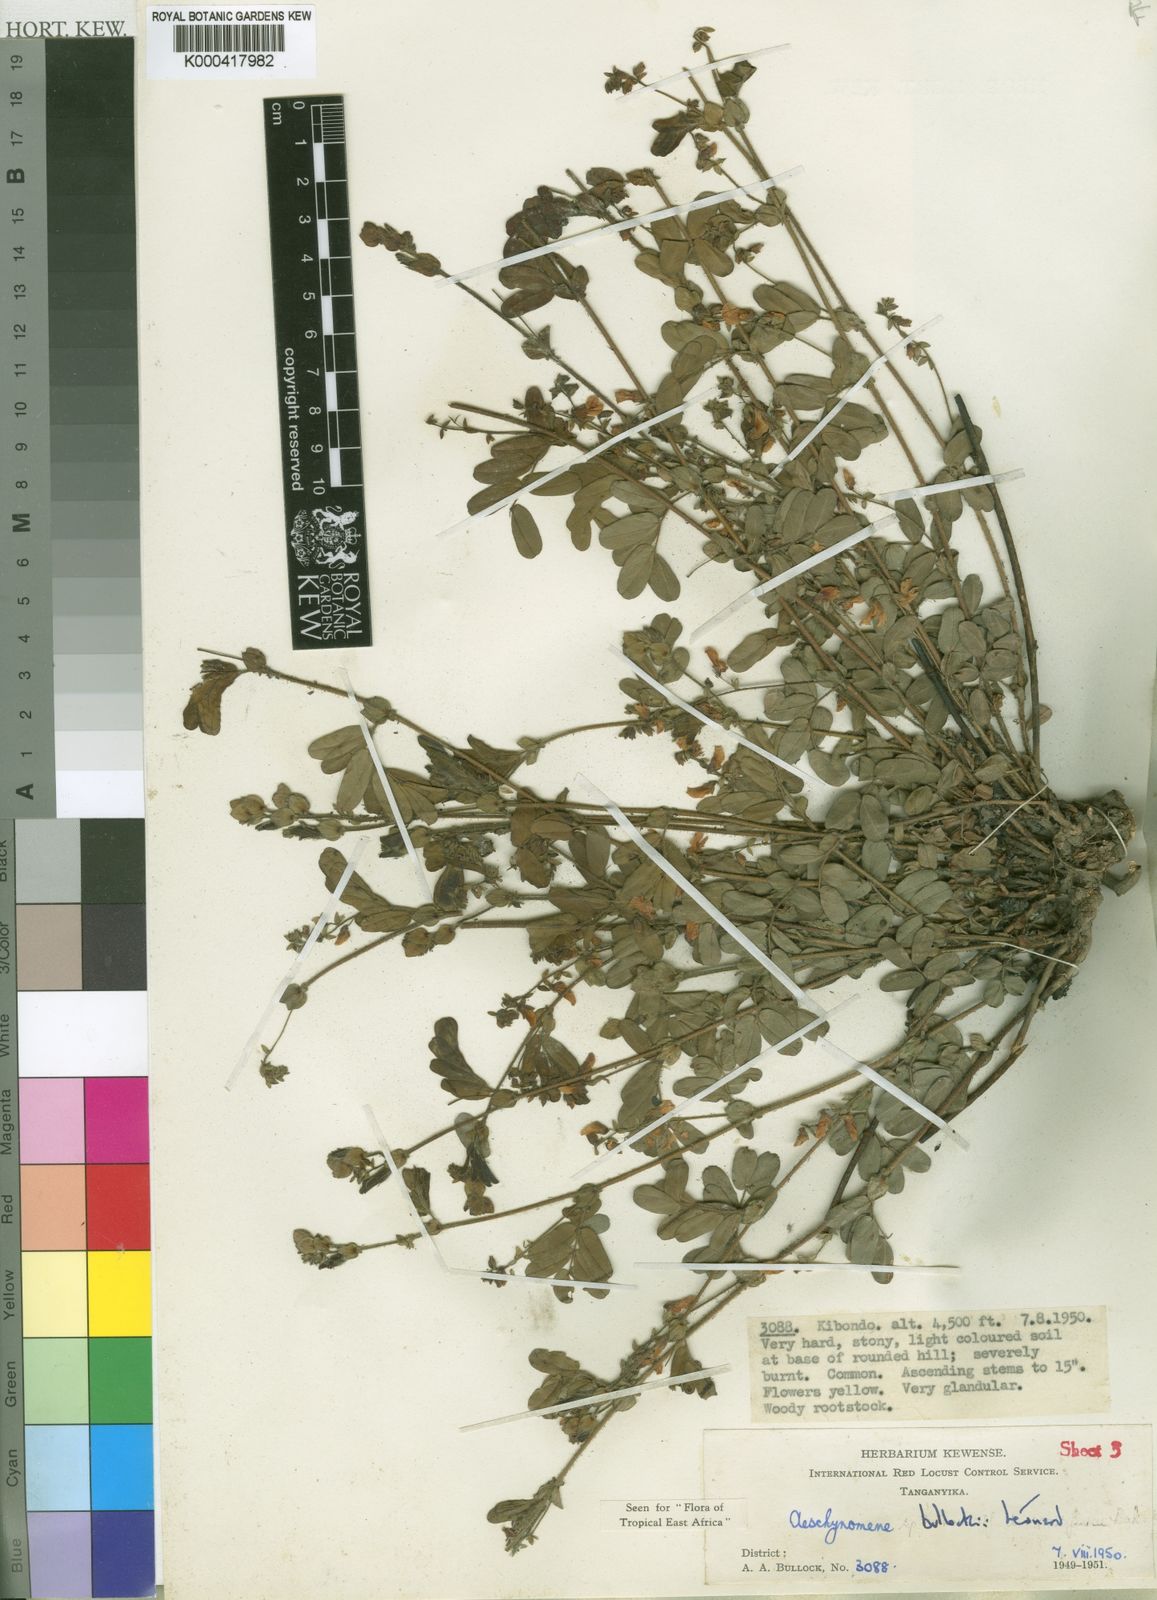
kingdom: Plantae
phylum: Tracheophyta
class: Magnoliopsida
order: Fabales
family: Fabaceae
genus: Aeschynomene
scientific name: Aeschynomene
